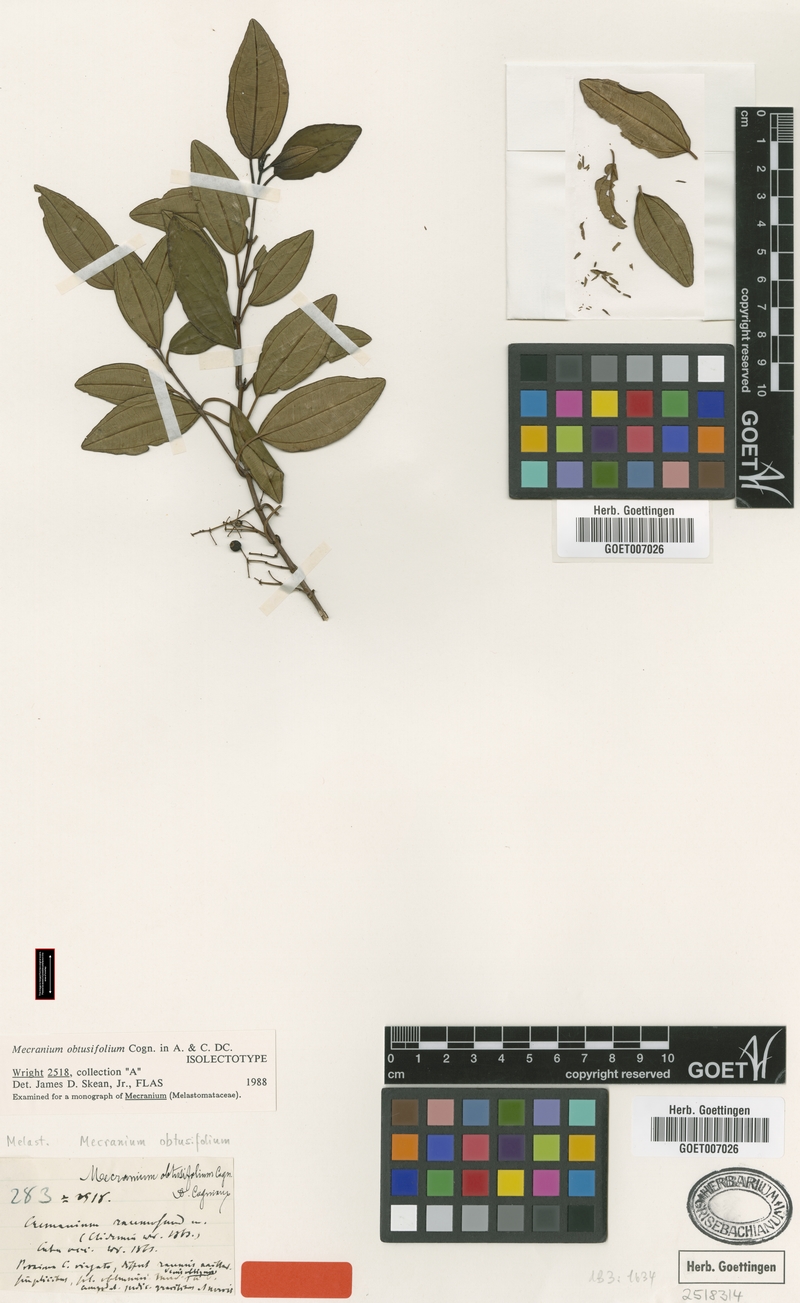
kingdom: Plantae
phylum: Tracheophyta
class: Magnoliopsida
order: Myrtales
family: Melastomataceae
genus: Miconia
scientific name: Miconia obtusifolia
